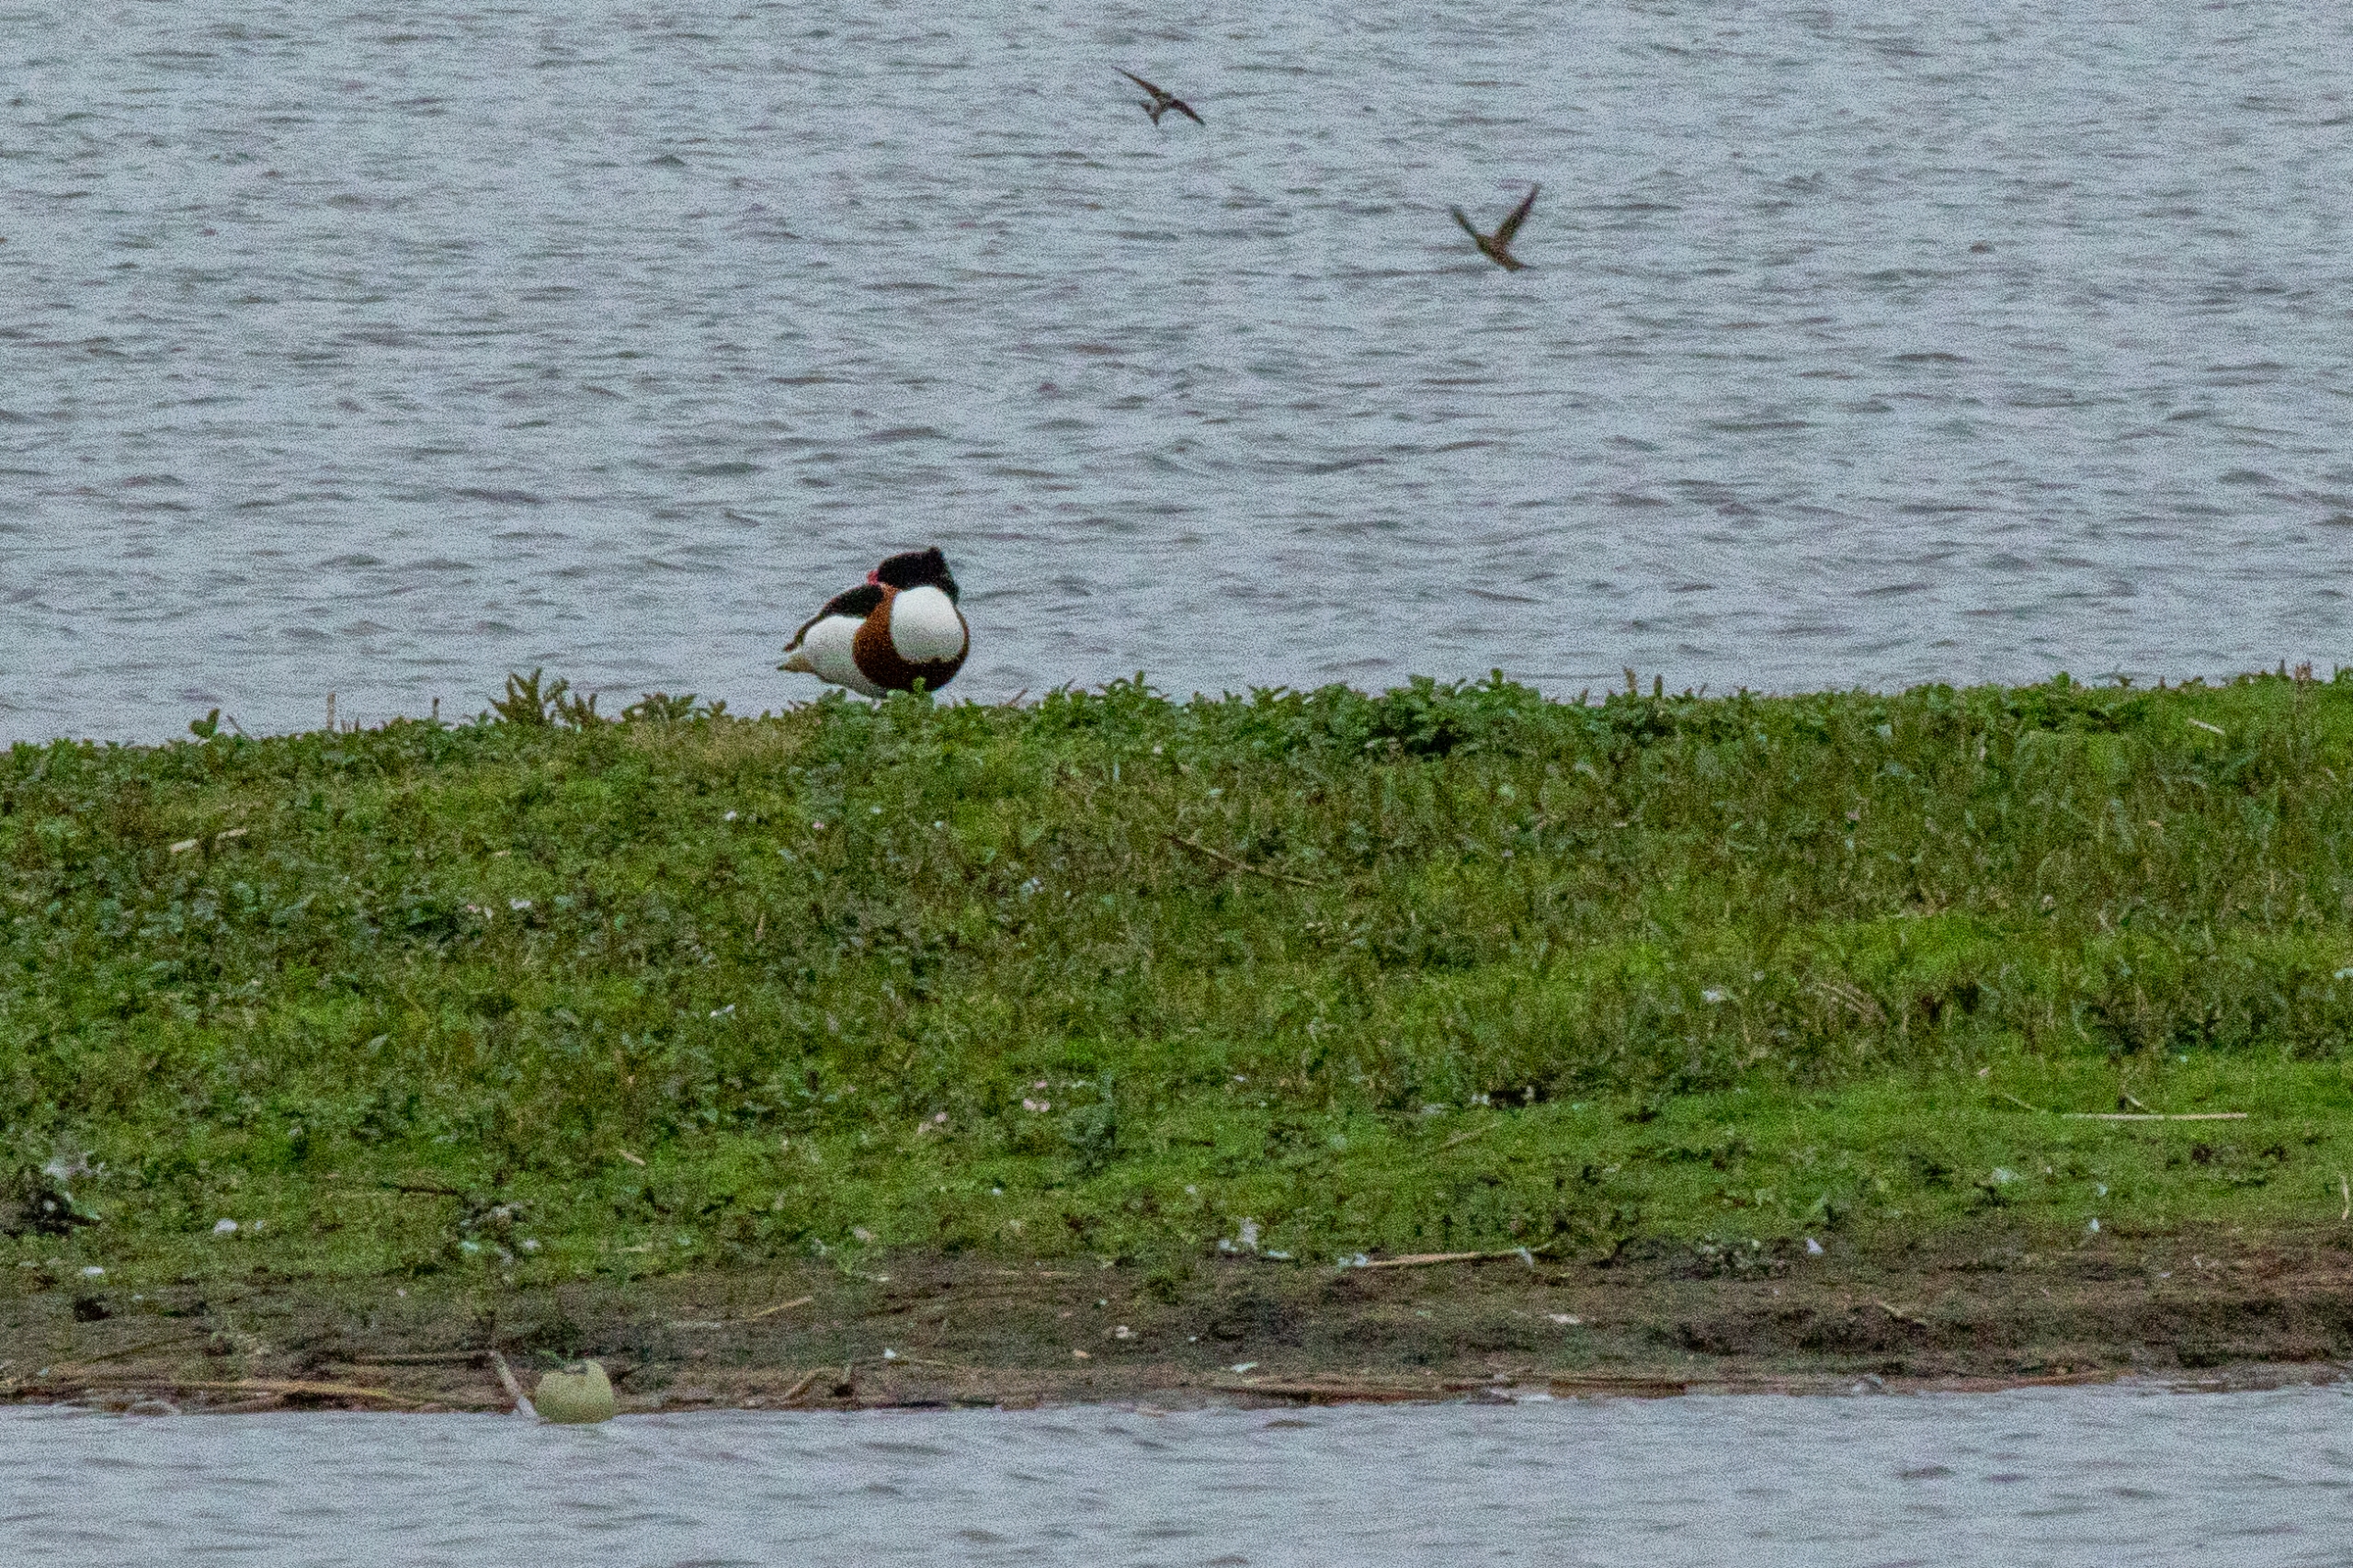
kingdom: Animalia
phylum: Chordata
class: Aves
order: Anseriformes
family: Anatidae
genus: Tadorna
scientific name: Tadorna tadorna
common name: Gravand
